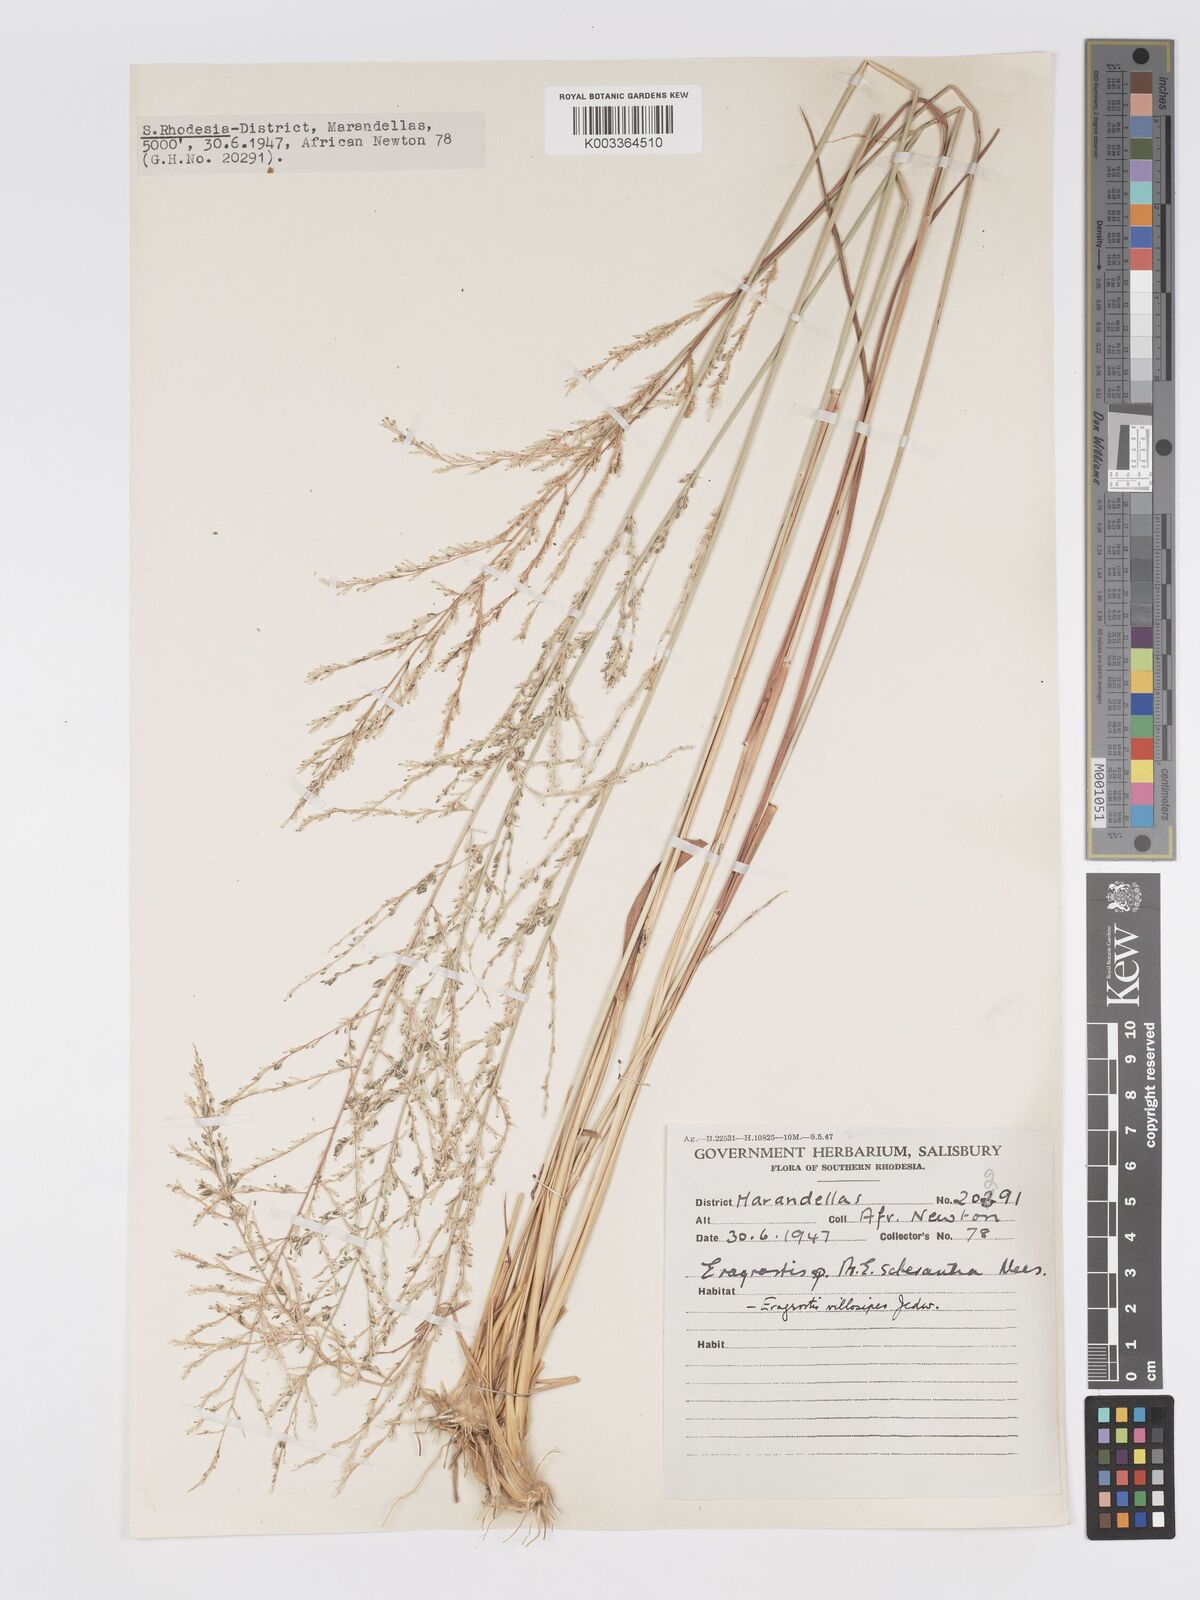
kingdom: Plantae
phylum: Tracheophyta
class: Liliopsida
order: Poales
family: Poaceae
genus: Eragrostis
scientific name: Eragrostis sclerantha
